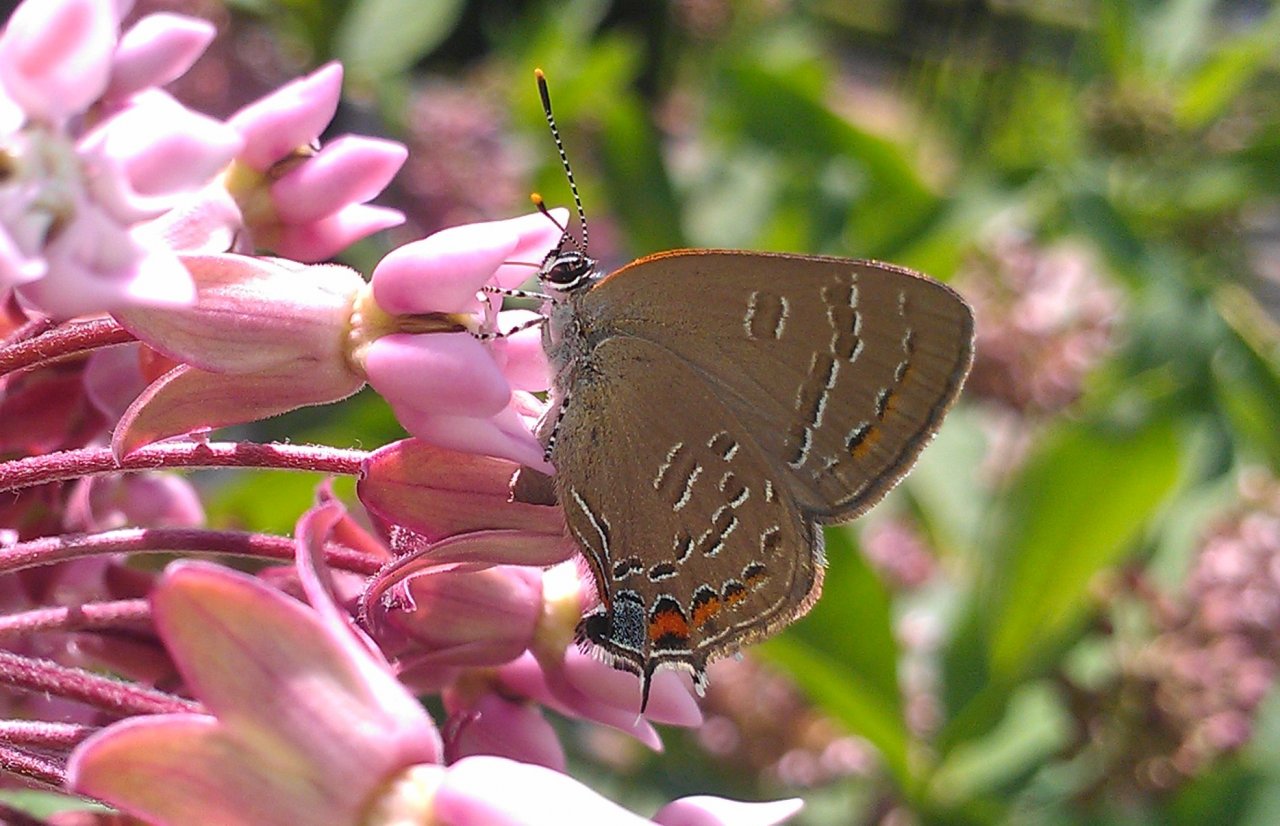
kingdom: Animalia
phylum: Arthropoda
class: Insecta
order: Lepidoptera
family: Lycaenidae
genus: Satyrium
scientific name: Satyrium calanus
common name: Banded Hairstreak
